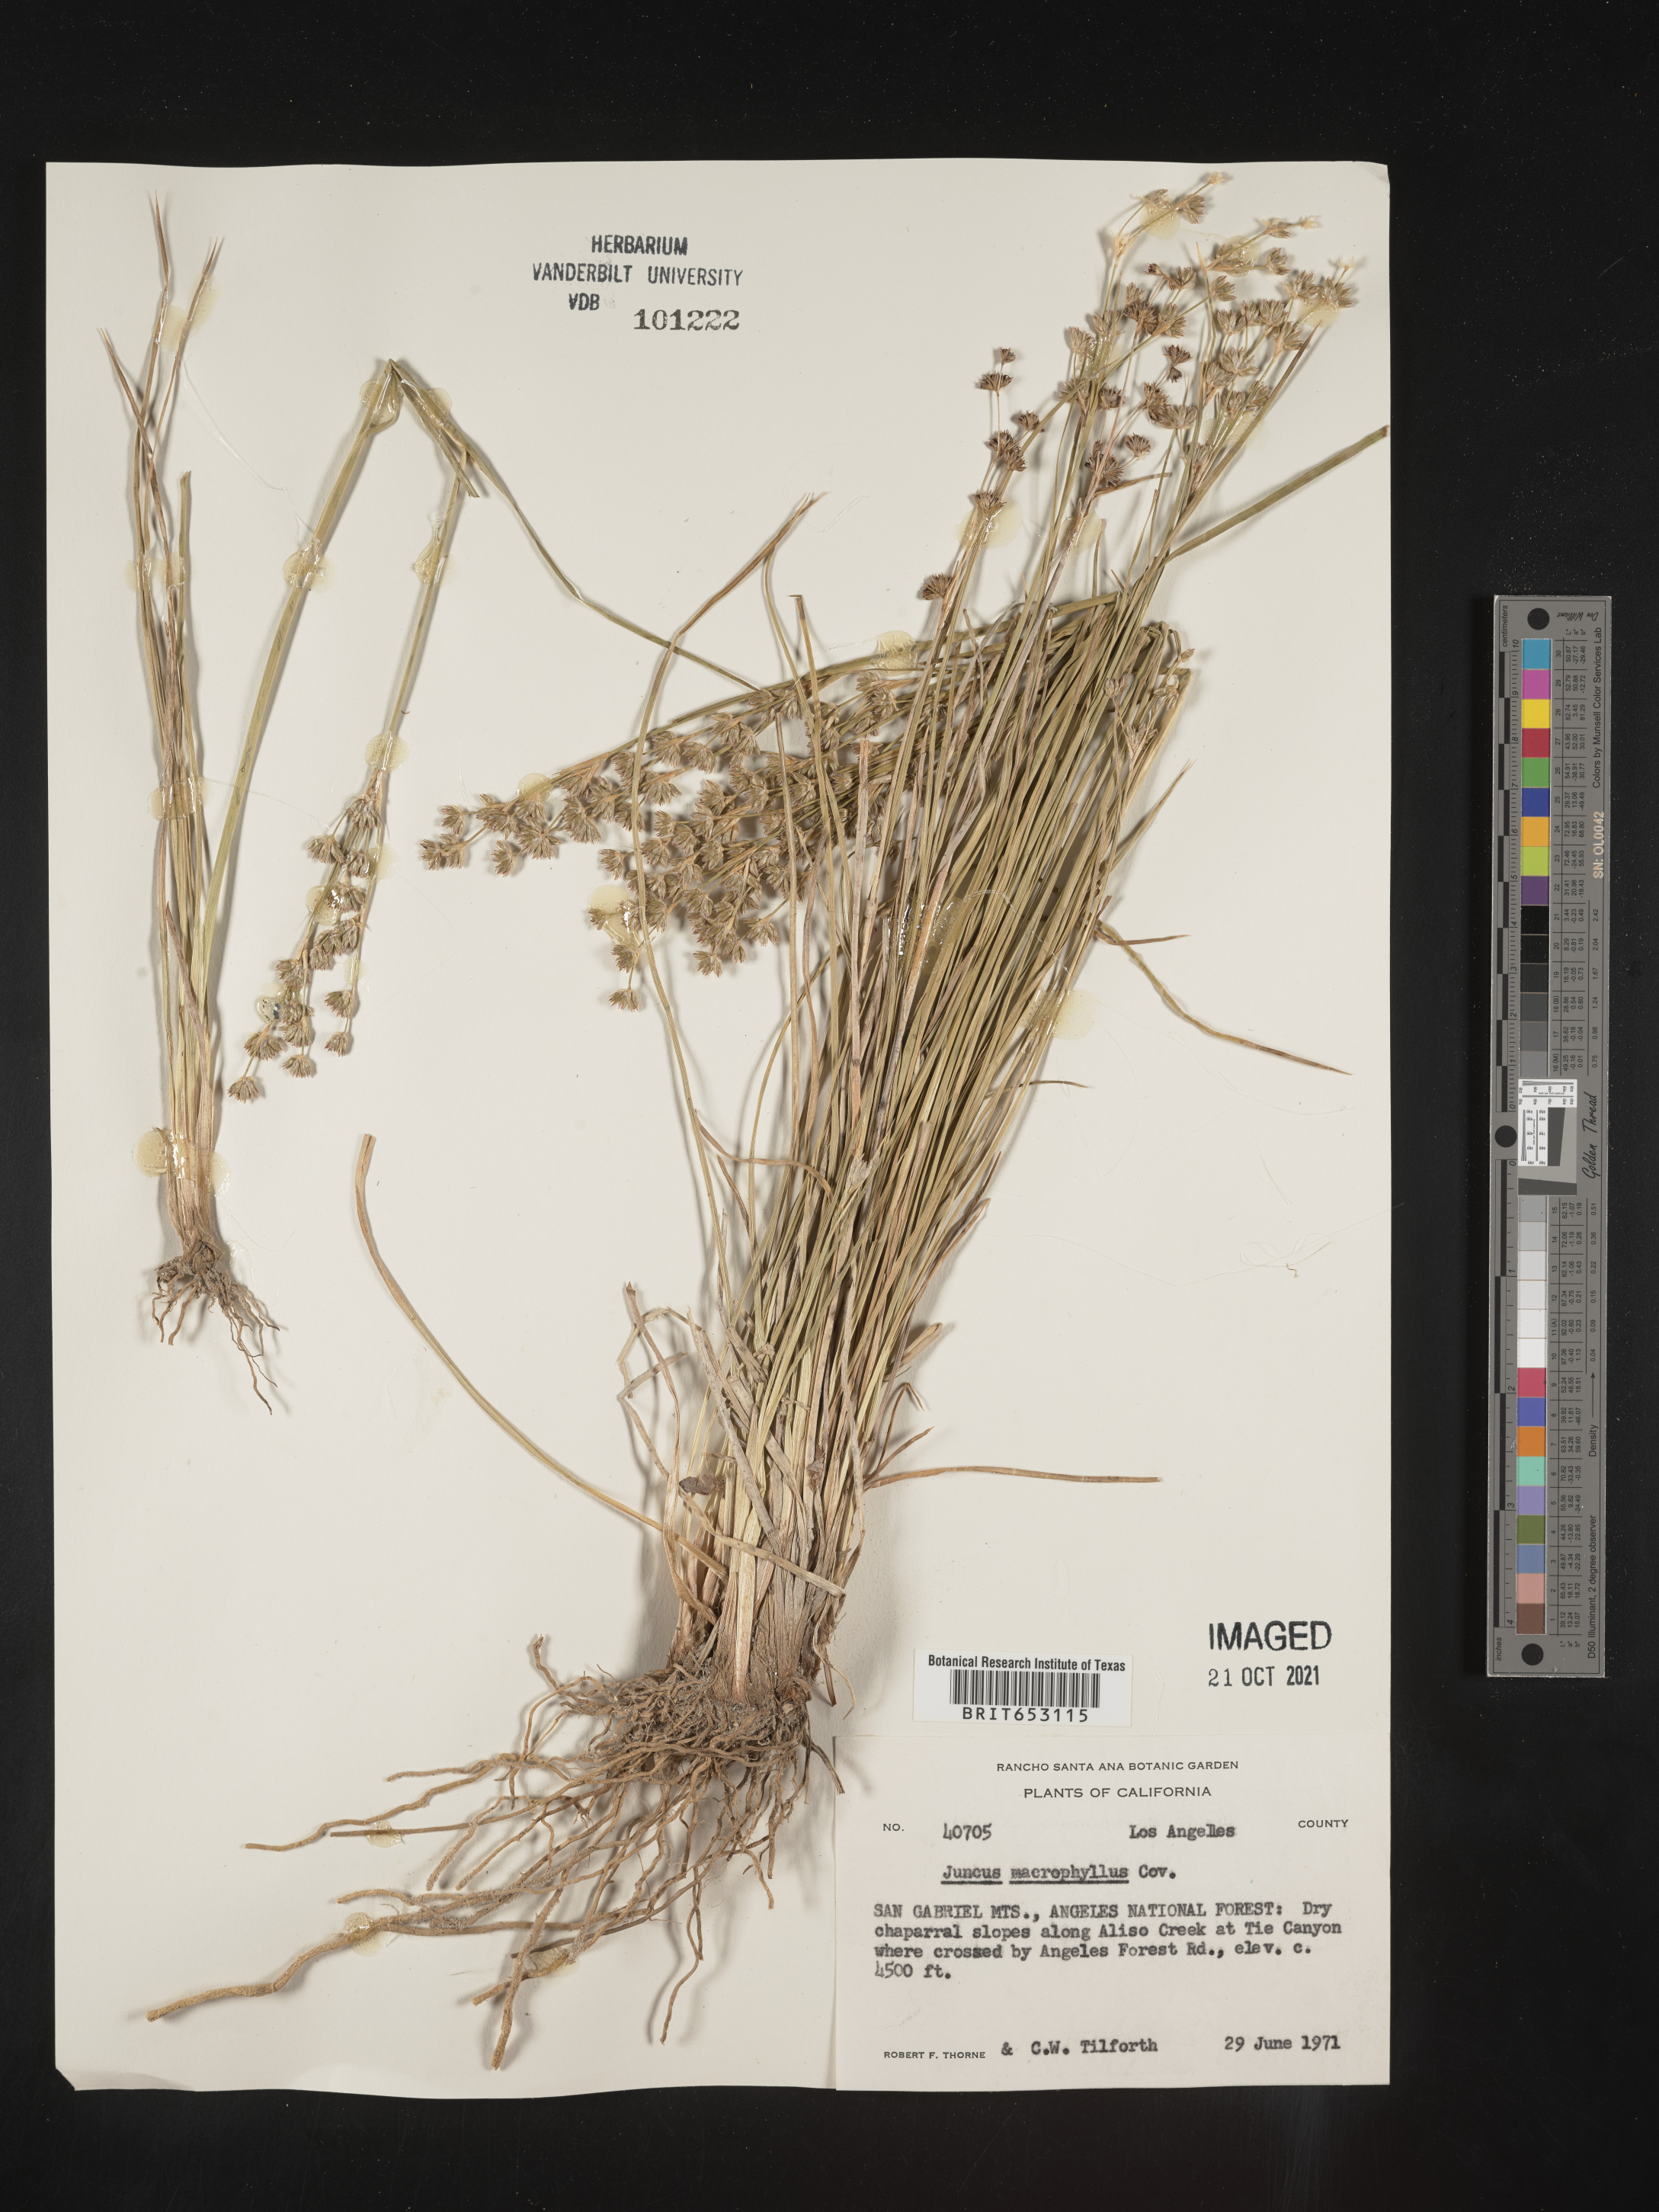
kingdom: Plantae
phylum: Tracheophyta
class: Liliopsida
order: Poales
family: Juncaceae
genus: Juncus
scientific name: Juncus macrophyllus
